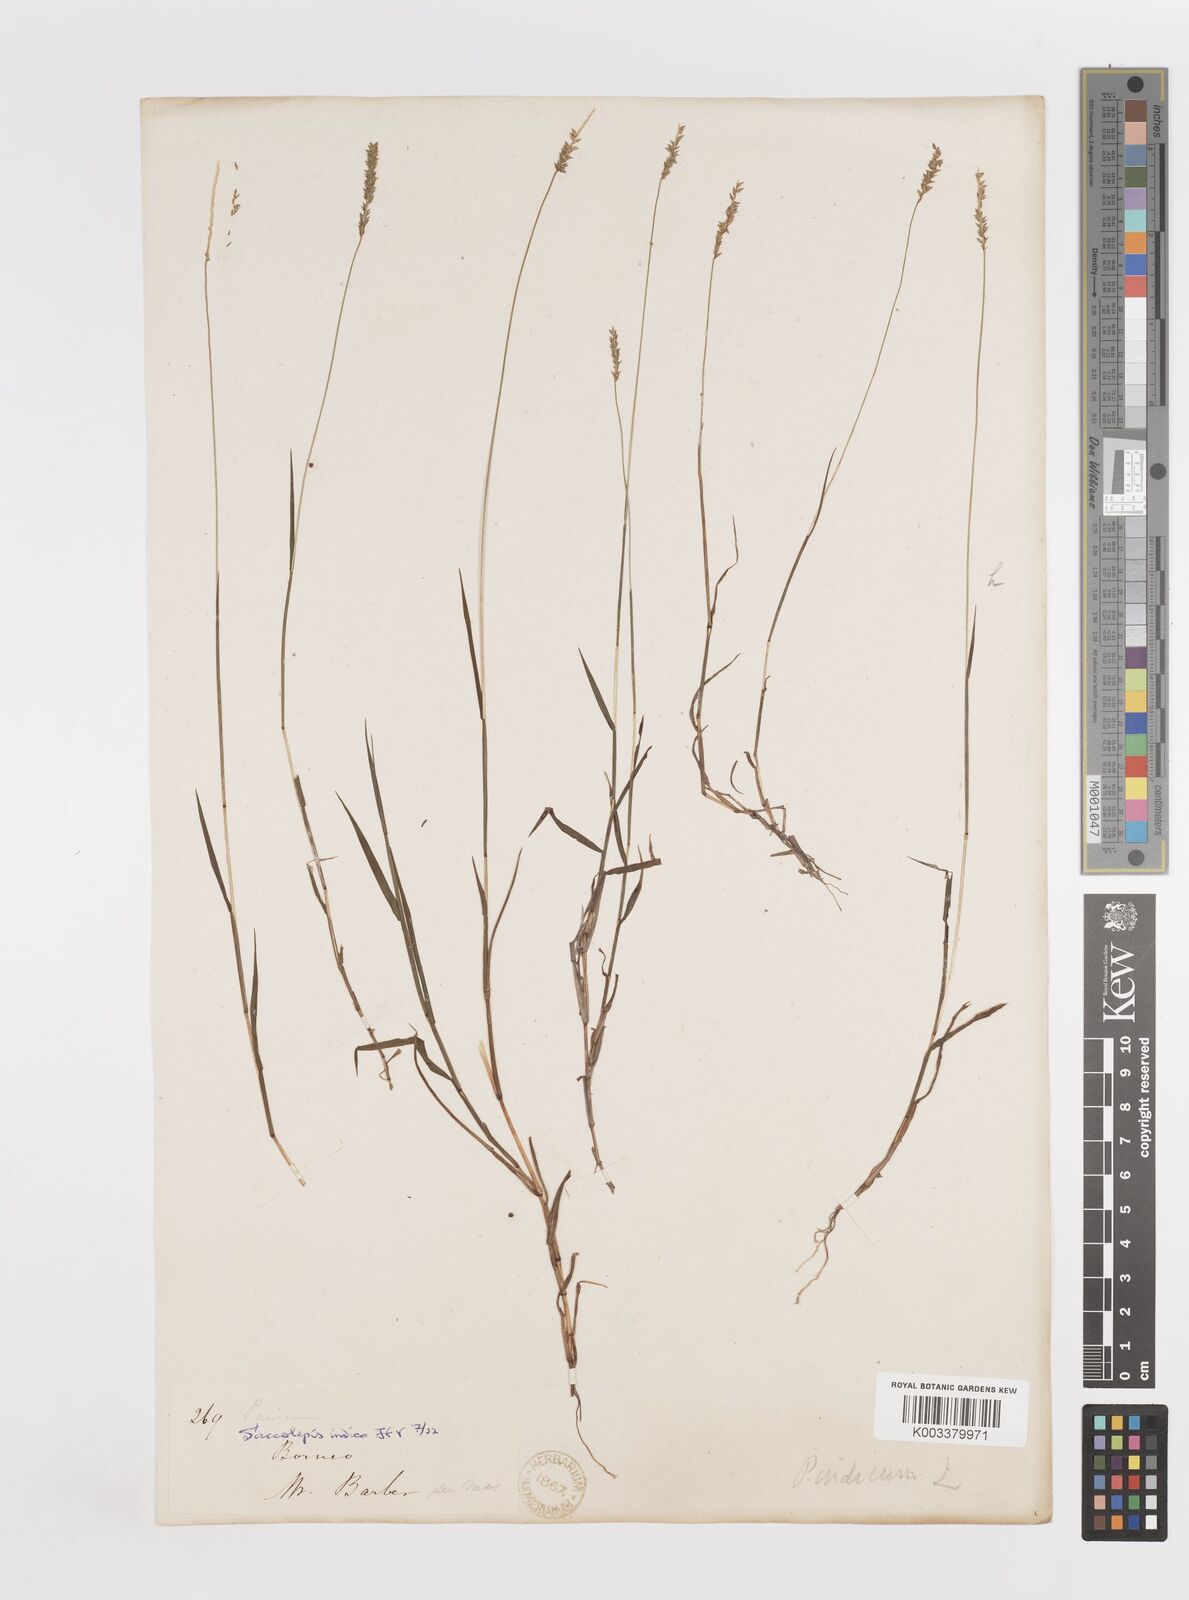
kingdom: Plantae
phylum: Tracheophyta
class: Liliopsida
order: Poales
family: Poaceae
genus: Sacciolepis
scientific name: Sacciolepis indica
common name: Glenwoodgrass
